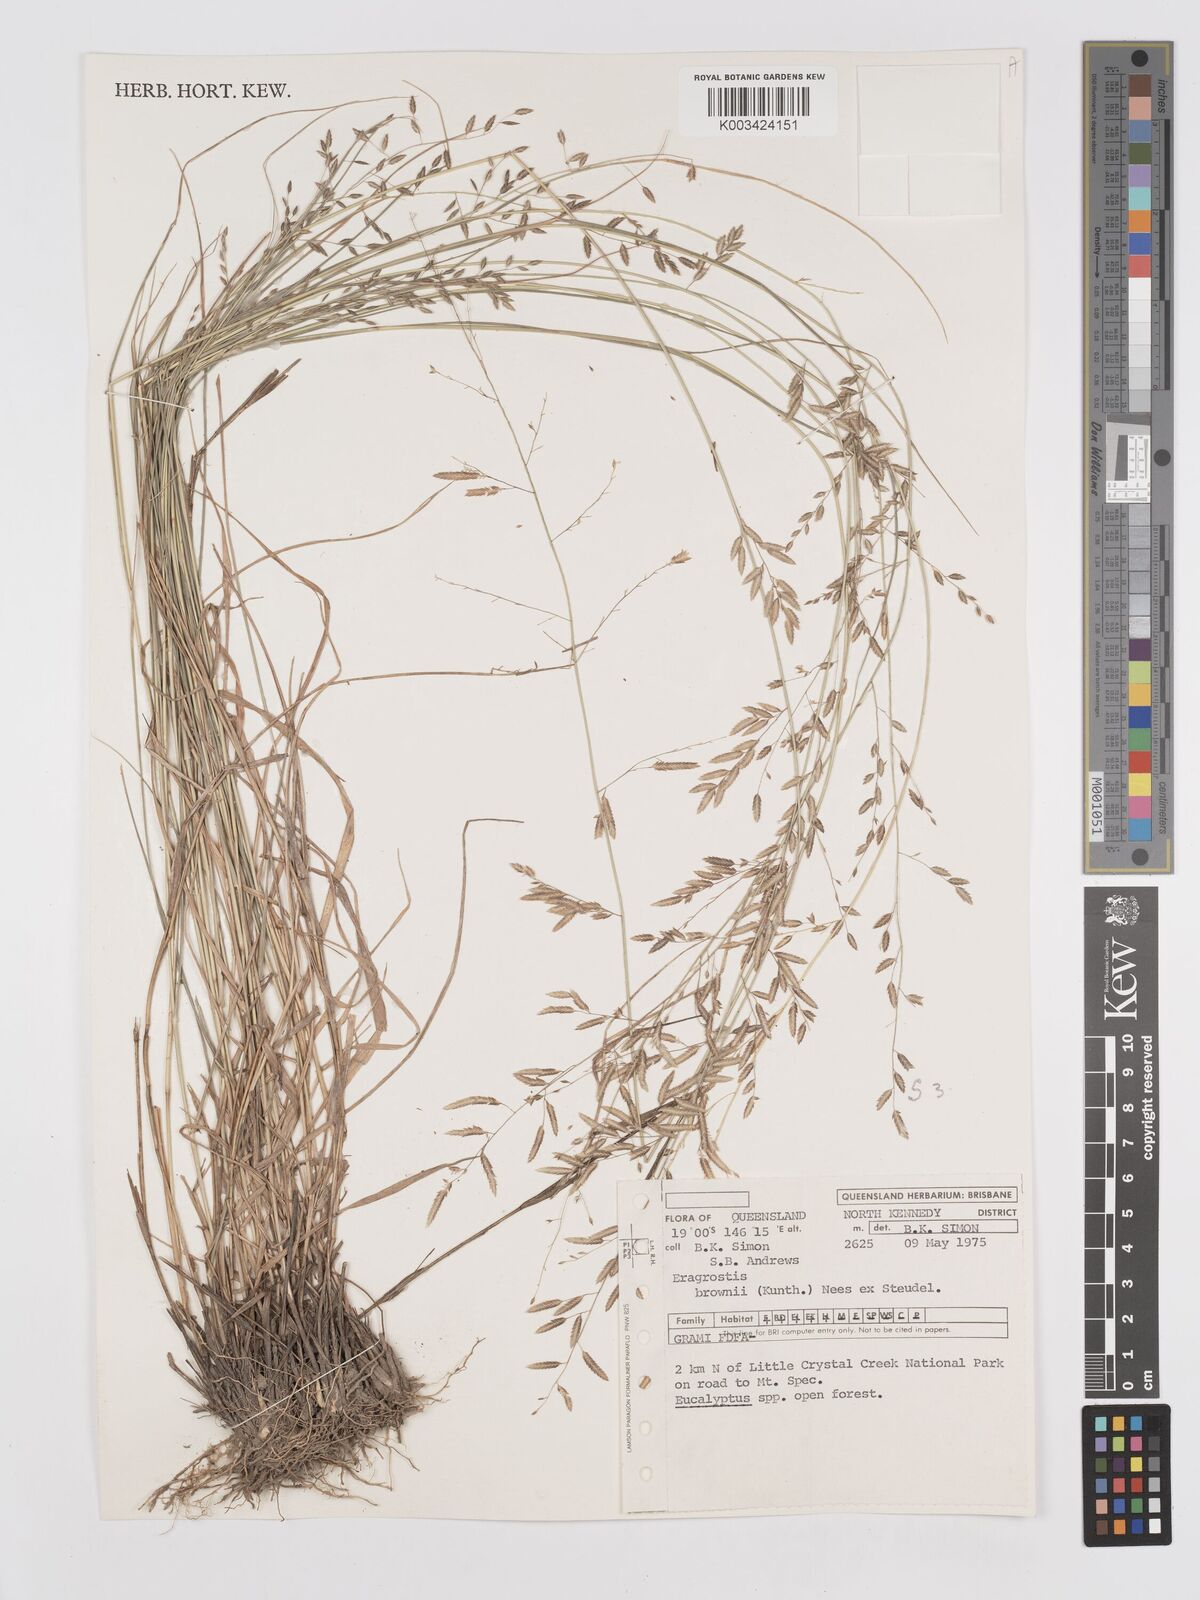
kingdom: Plantae
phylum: Tracheophyta
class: Liliopsida
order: Poales
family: Poaceae
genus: Eragrostis
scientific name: Eragrostis brownii
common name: Lovegrass
